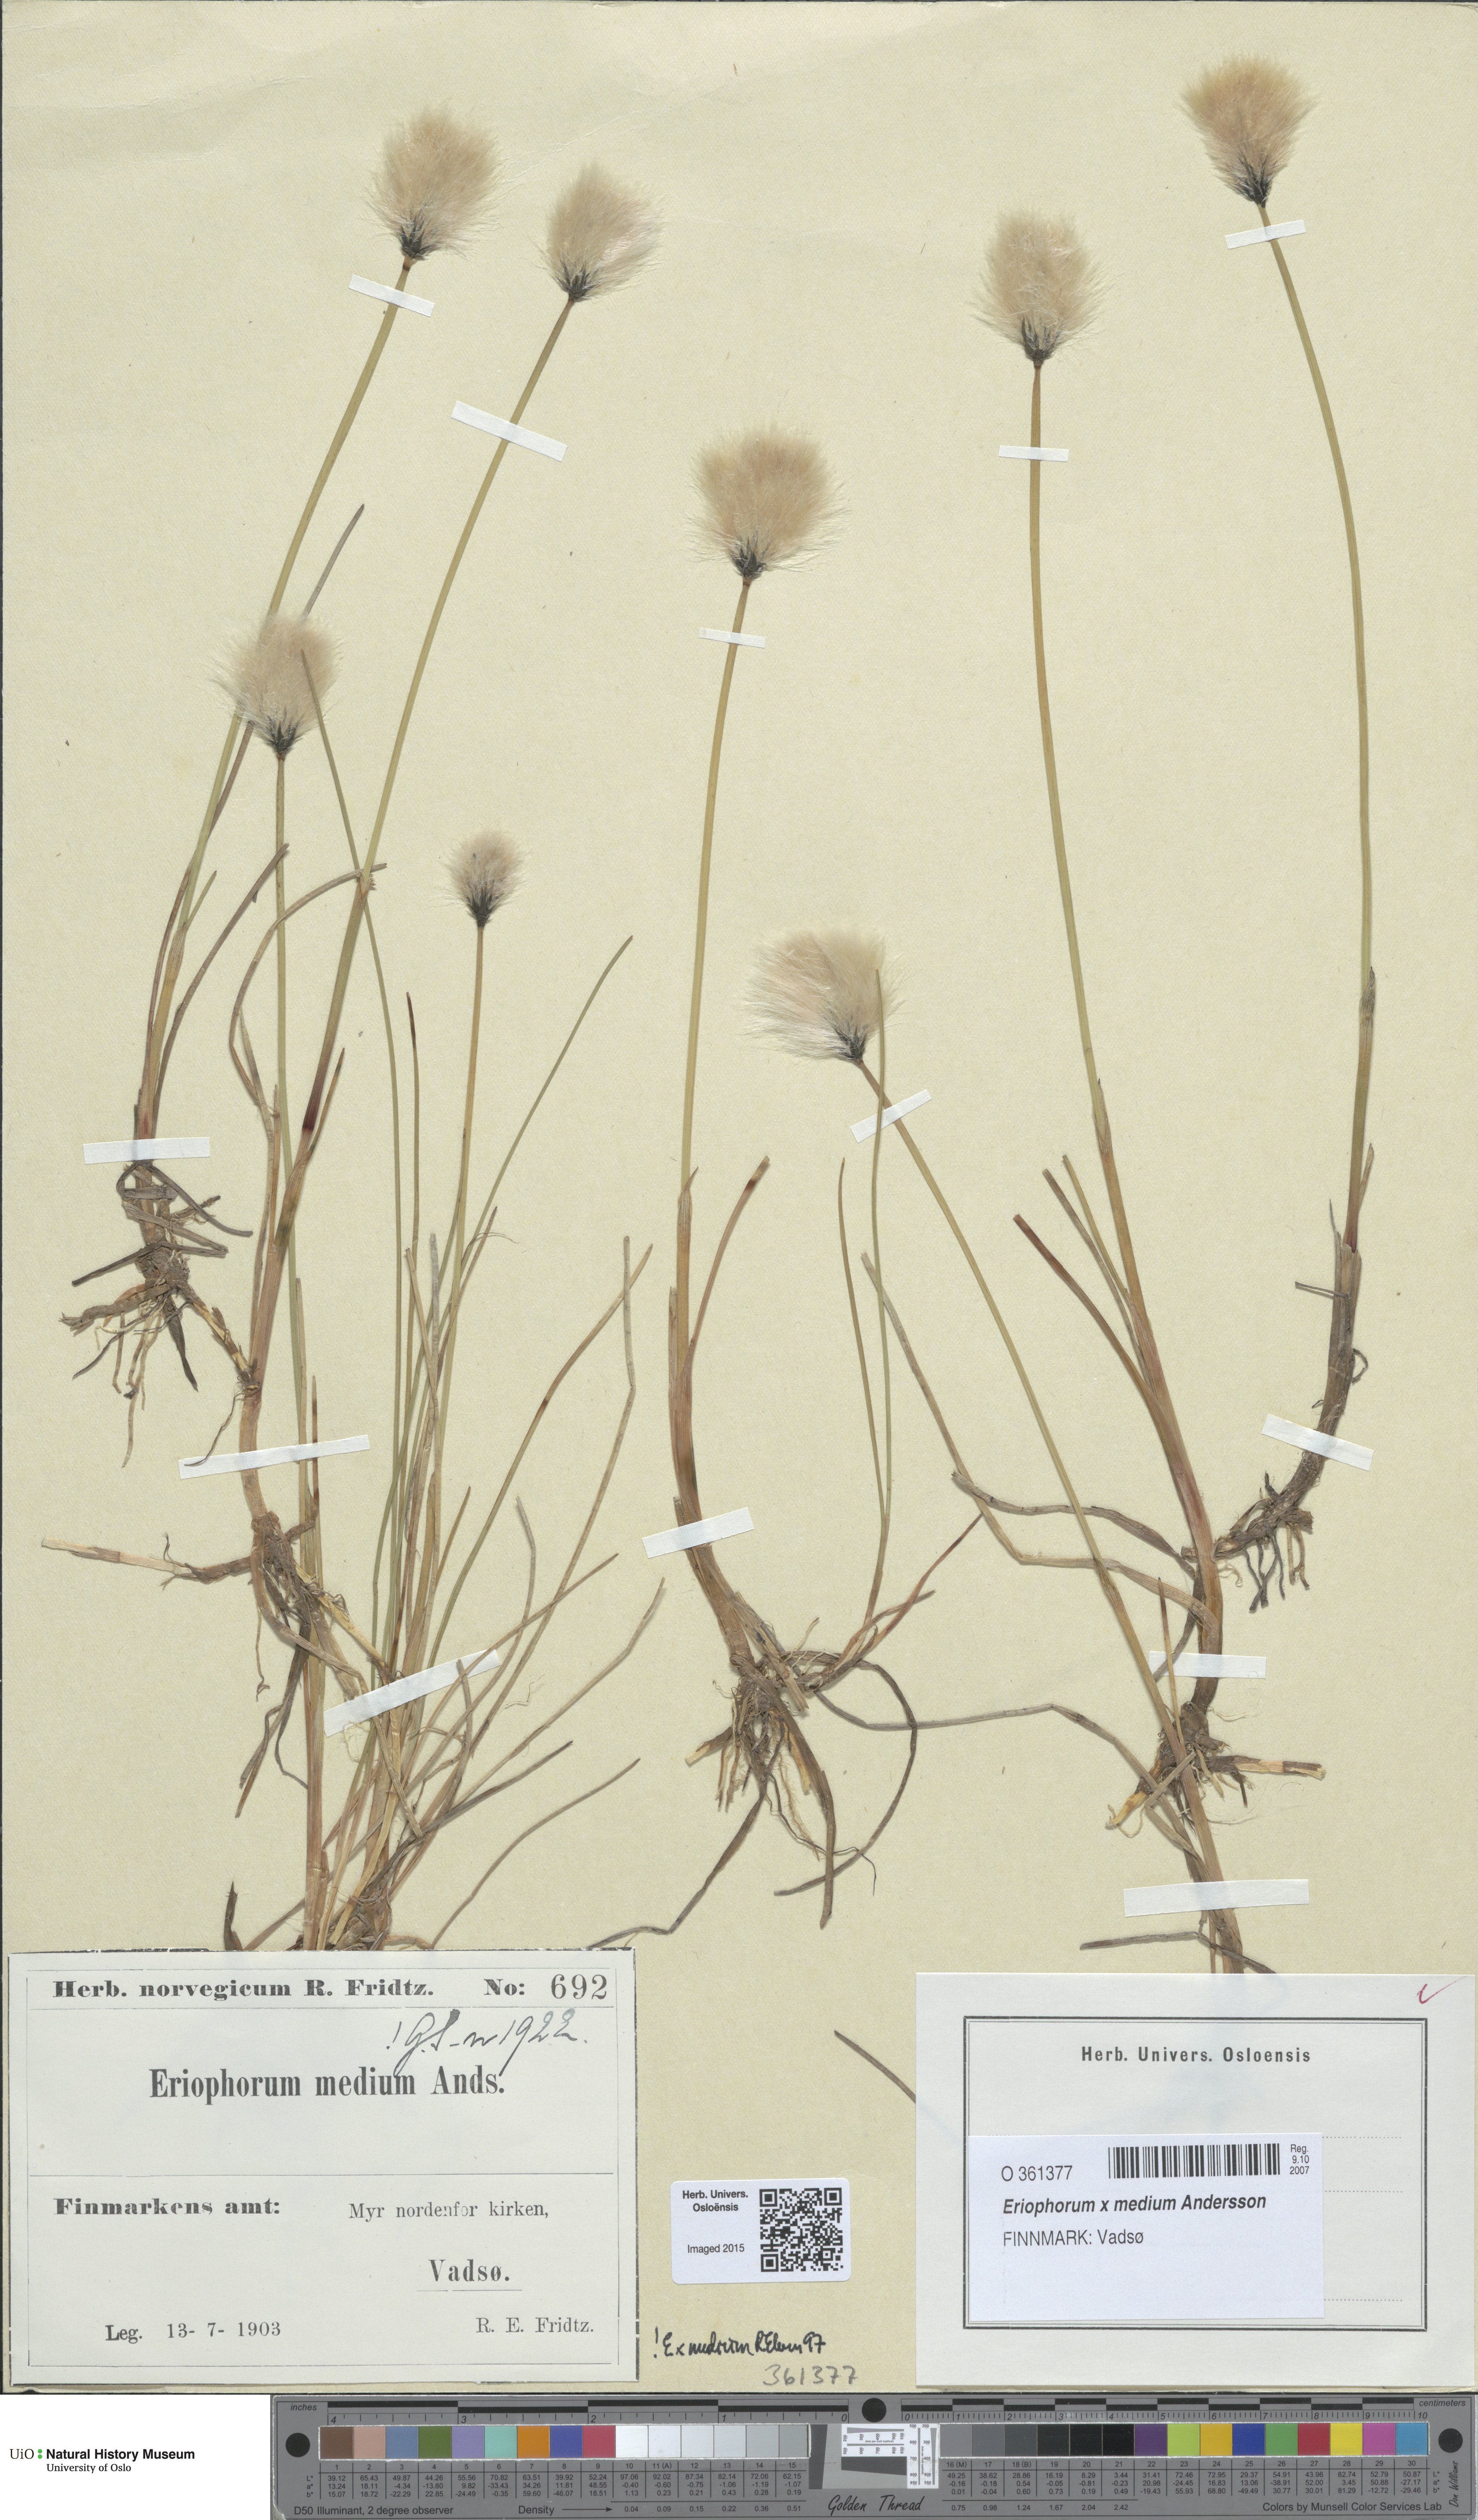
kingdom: Plantae
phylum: Tracheophyta
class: Liliopsida
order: Poales
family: Cyperaceae
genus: Eriophorum
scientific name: Eriophorum medium
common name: Intermediate cottongrass
